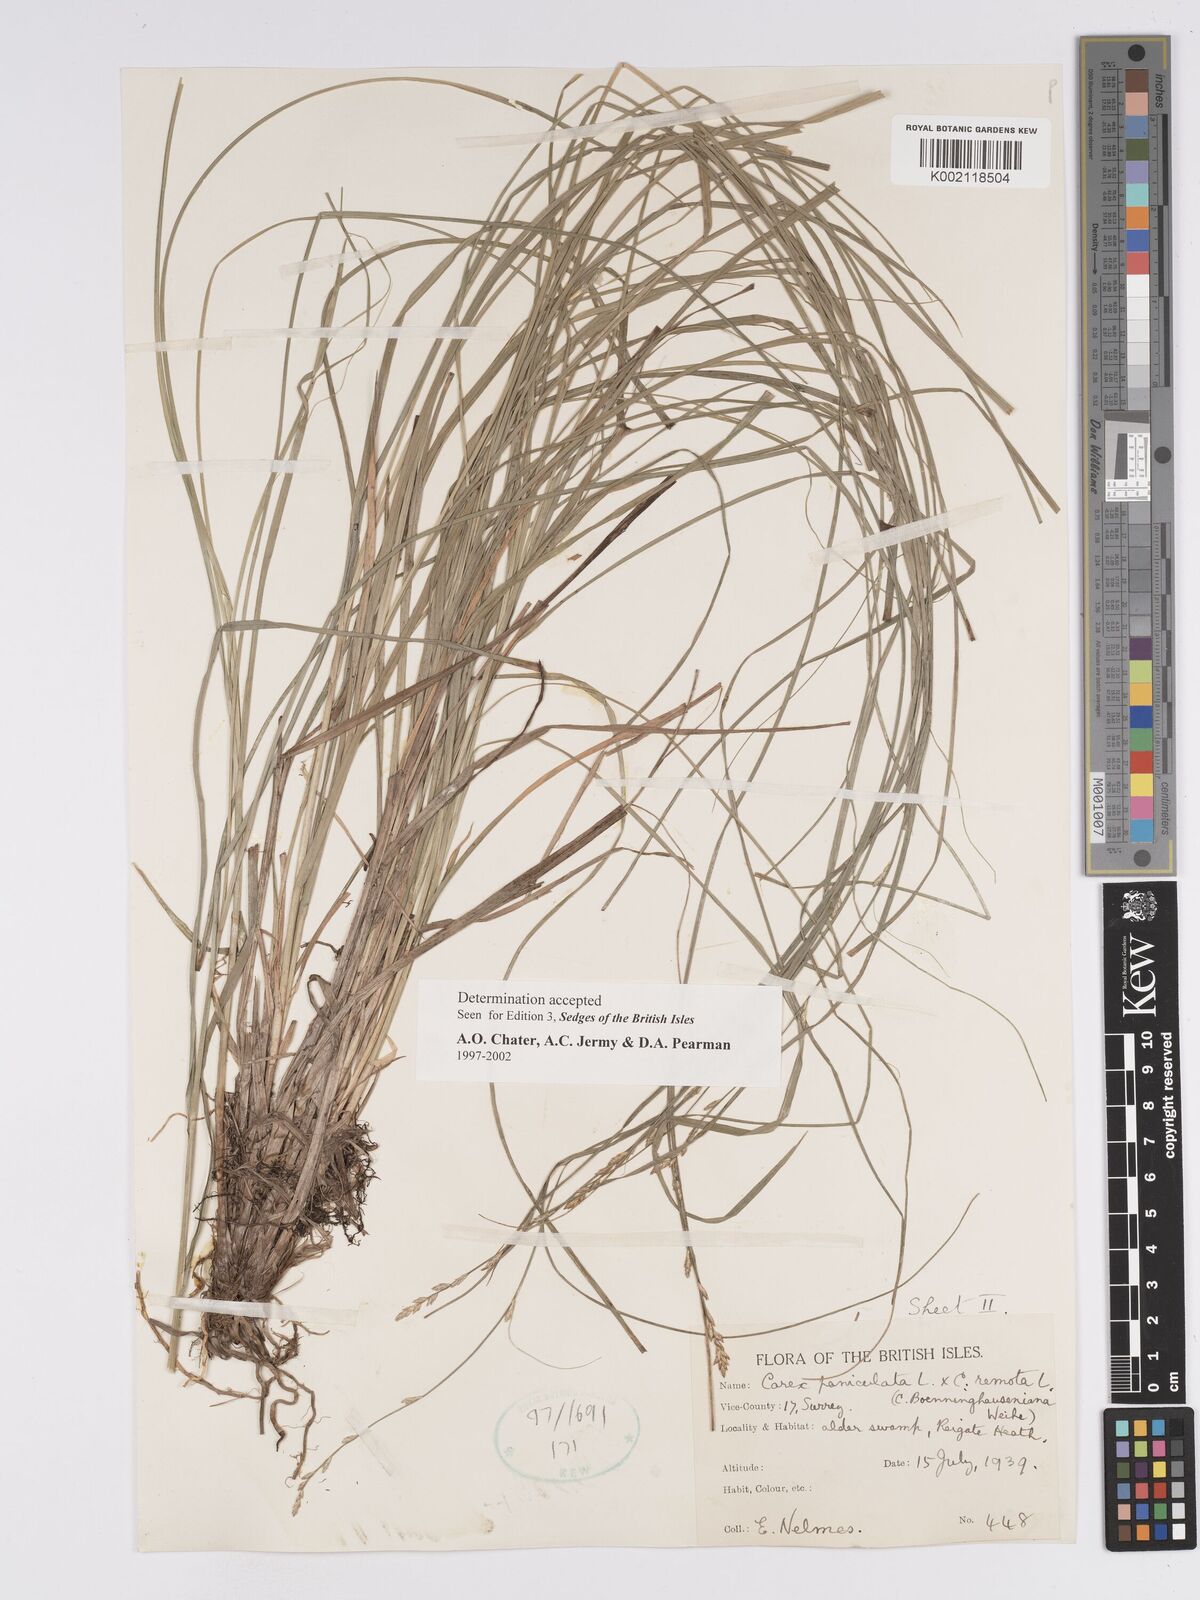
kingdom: Plantae
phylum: Tracheophyta
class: Liliopsida
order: Poales
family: Cyperaceae
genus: Carex
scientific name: Carex boenninghausiana
